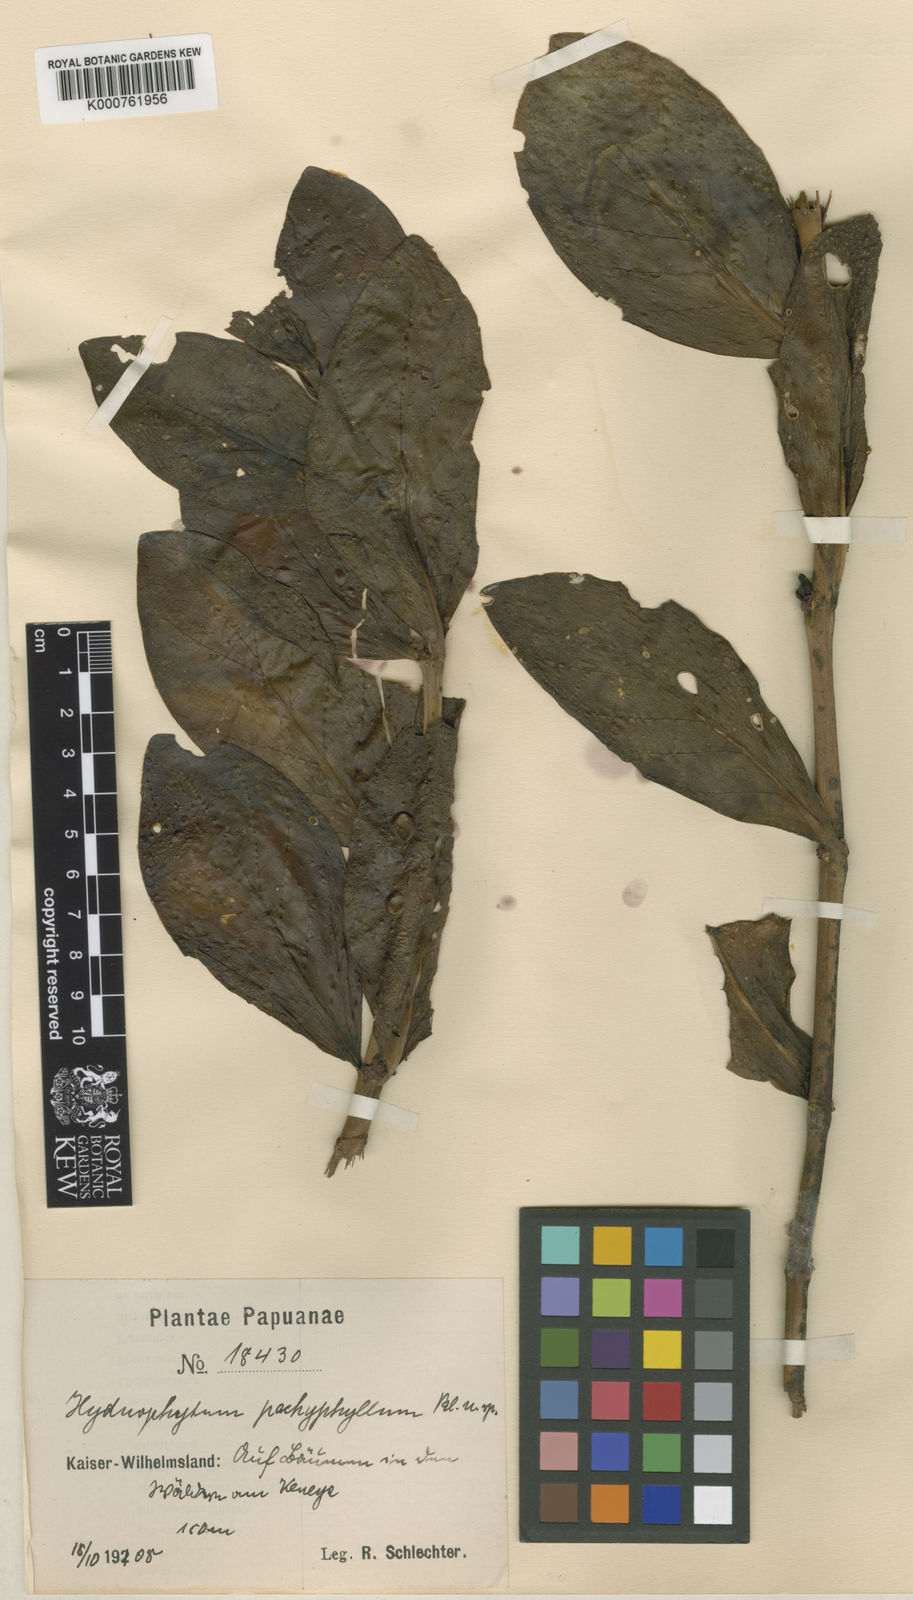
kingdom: Plantae
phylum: Tracheophyta
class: Magnoliopsida
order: Gentianales
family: Rubiaceae
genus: Hydnophytum
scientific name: Hydnophytum
